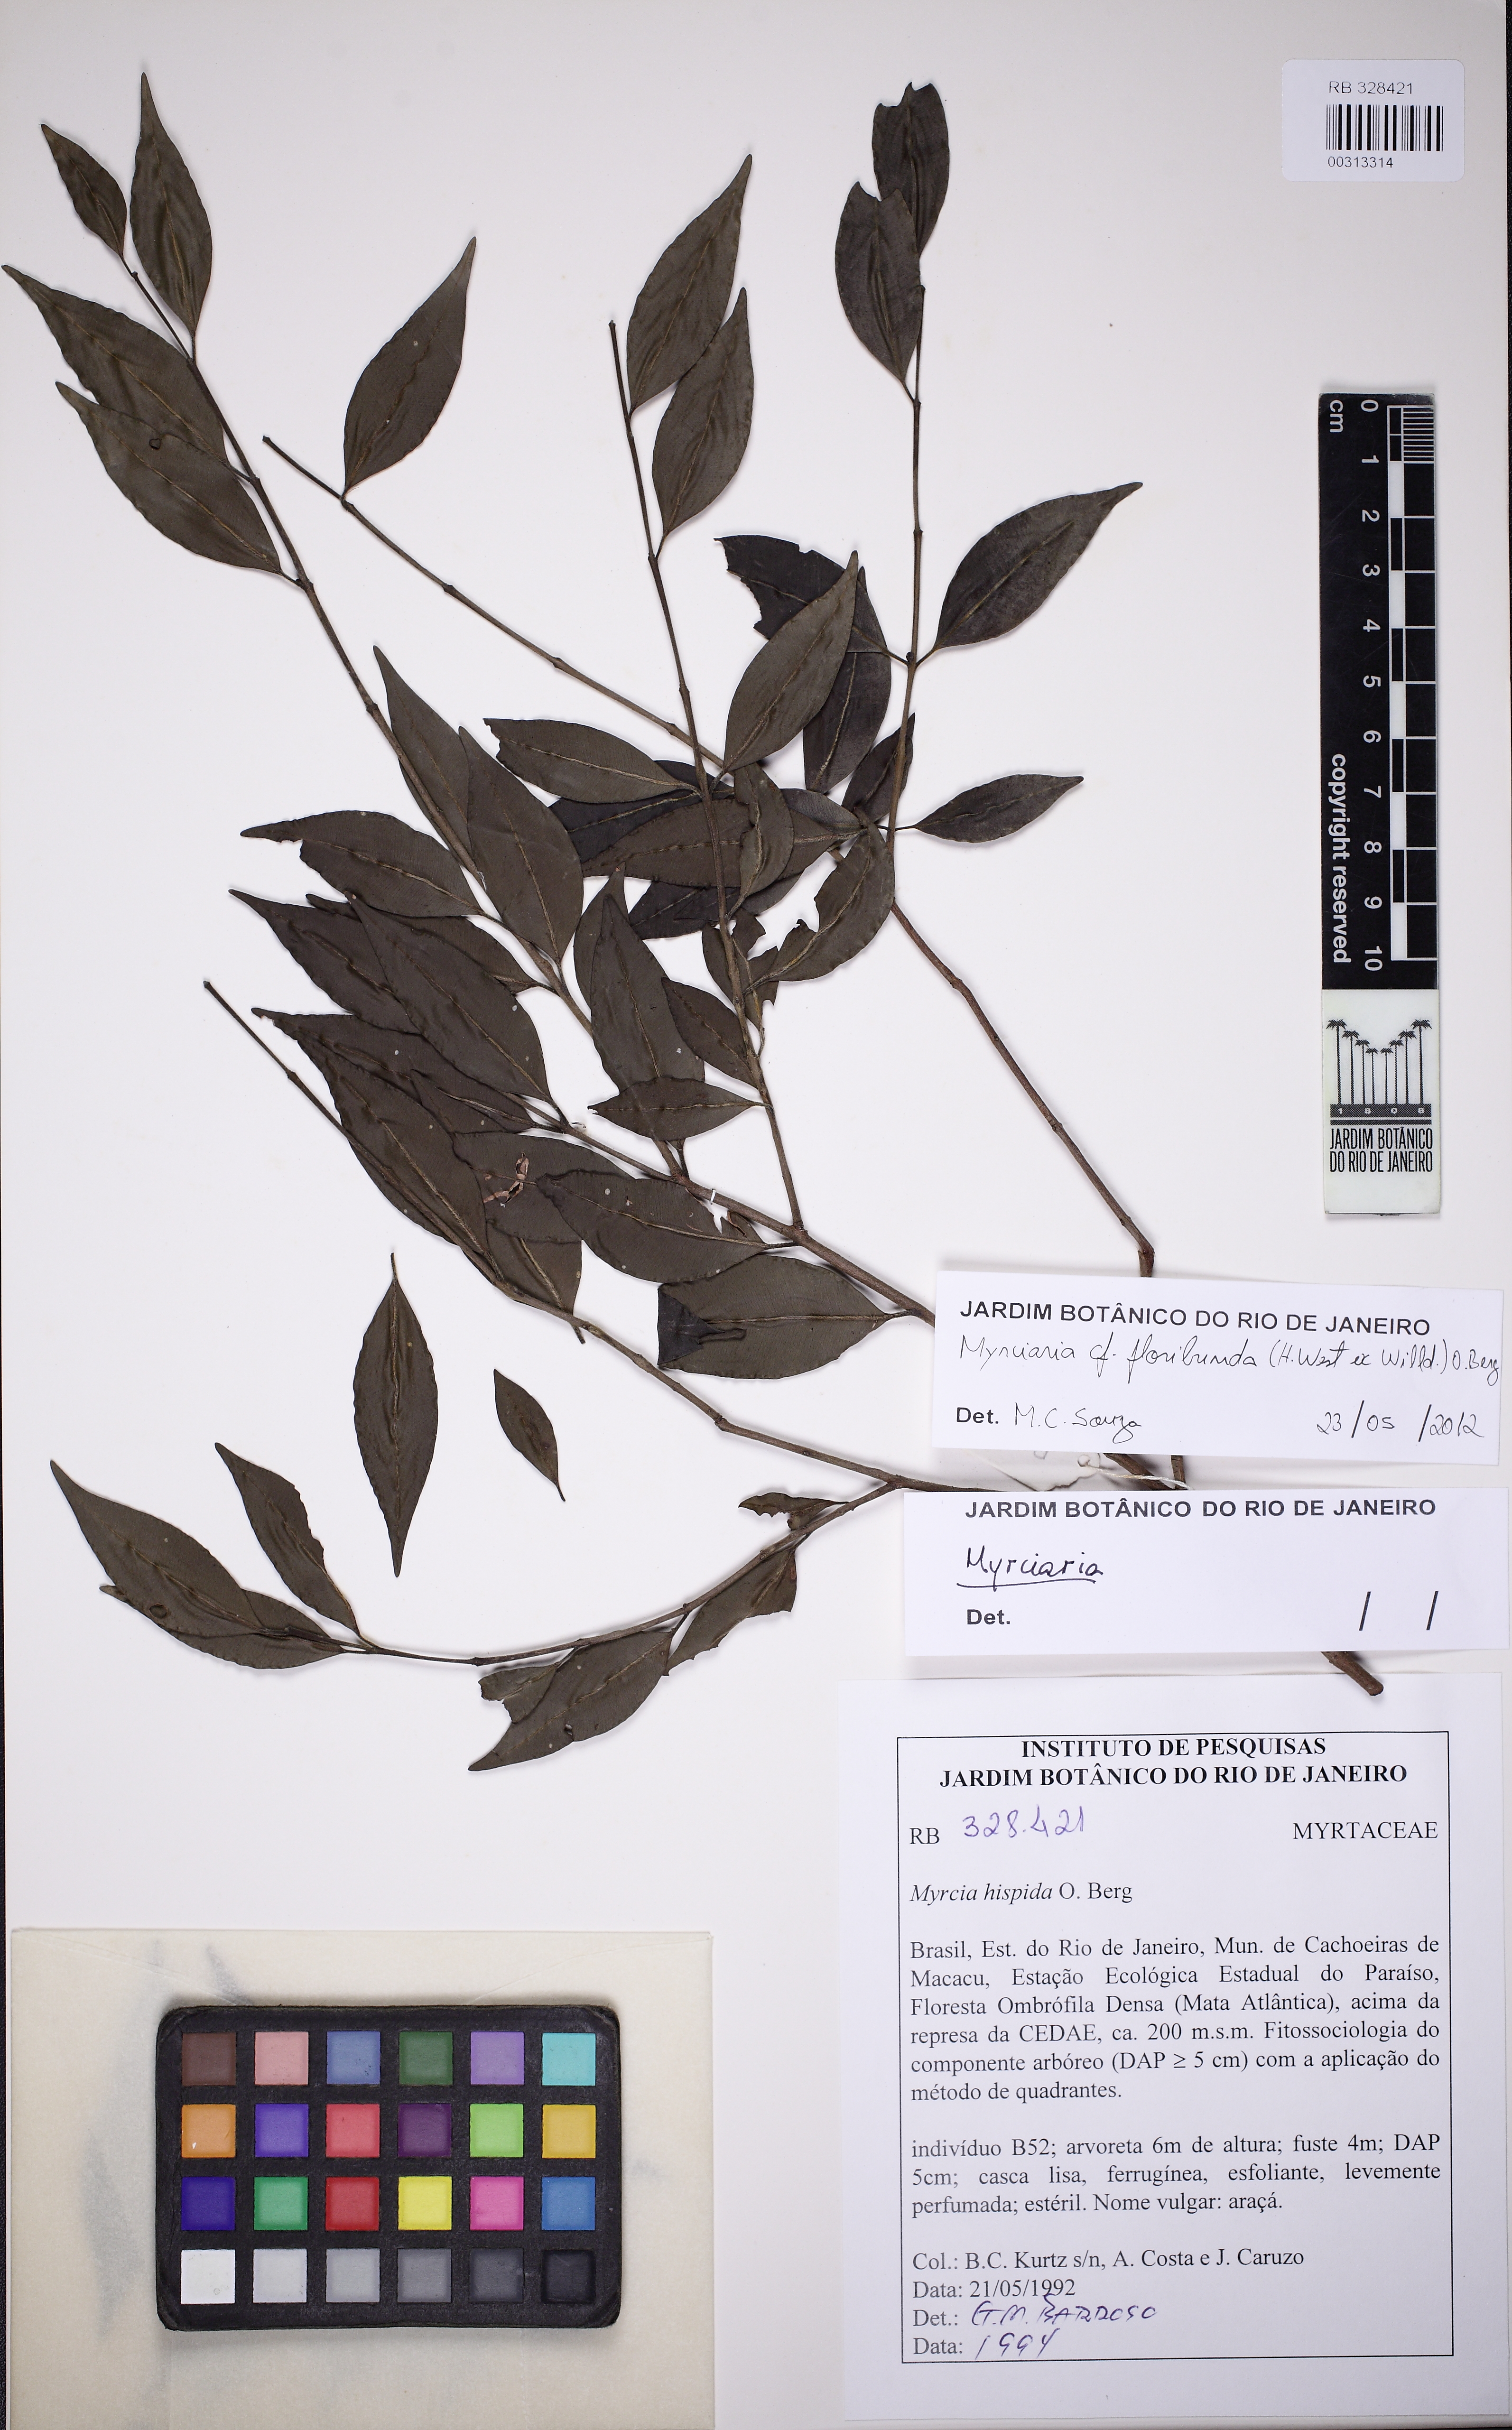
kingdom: Plantae
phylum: Tracheophyta
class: Magnoliopsida
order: Myrtales
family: Myrtaceae
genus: Myrciaria
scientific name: Myrciaria floribunda
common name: Guavaberry
